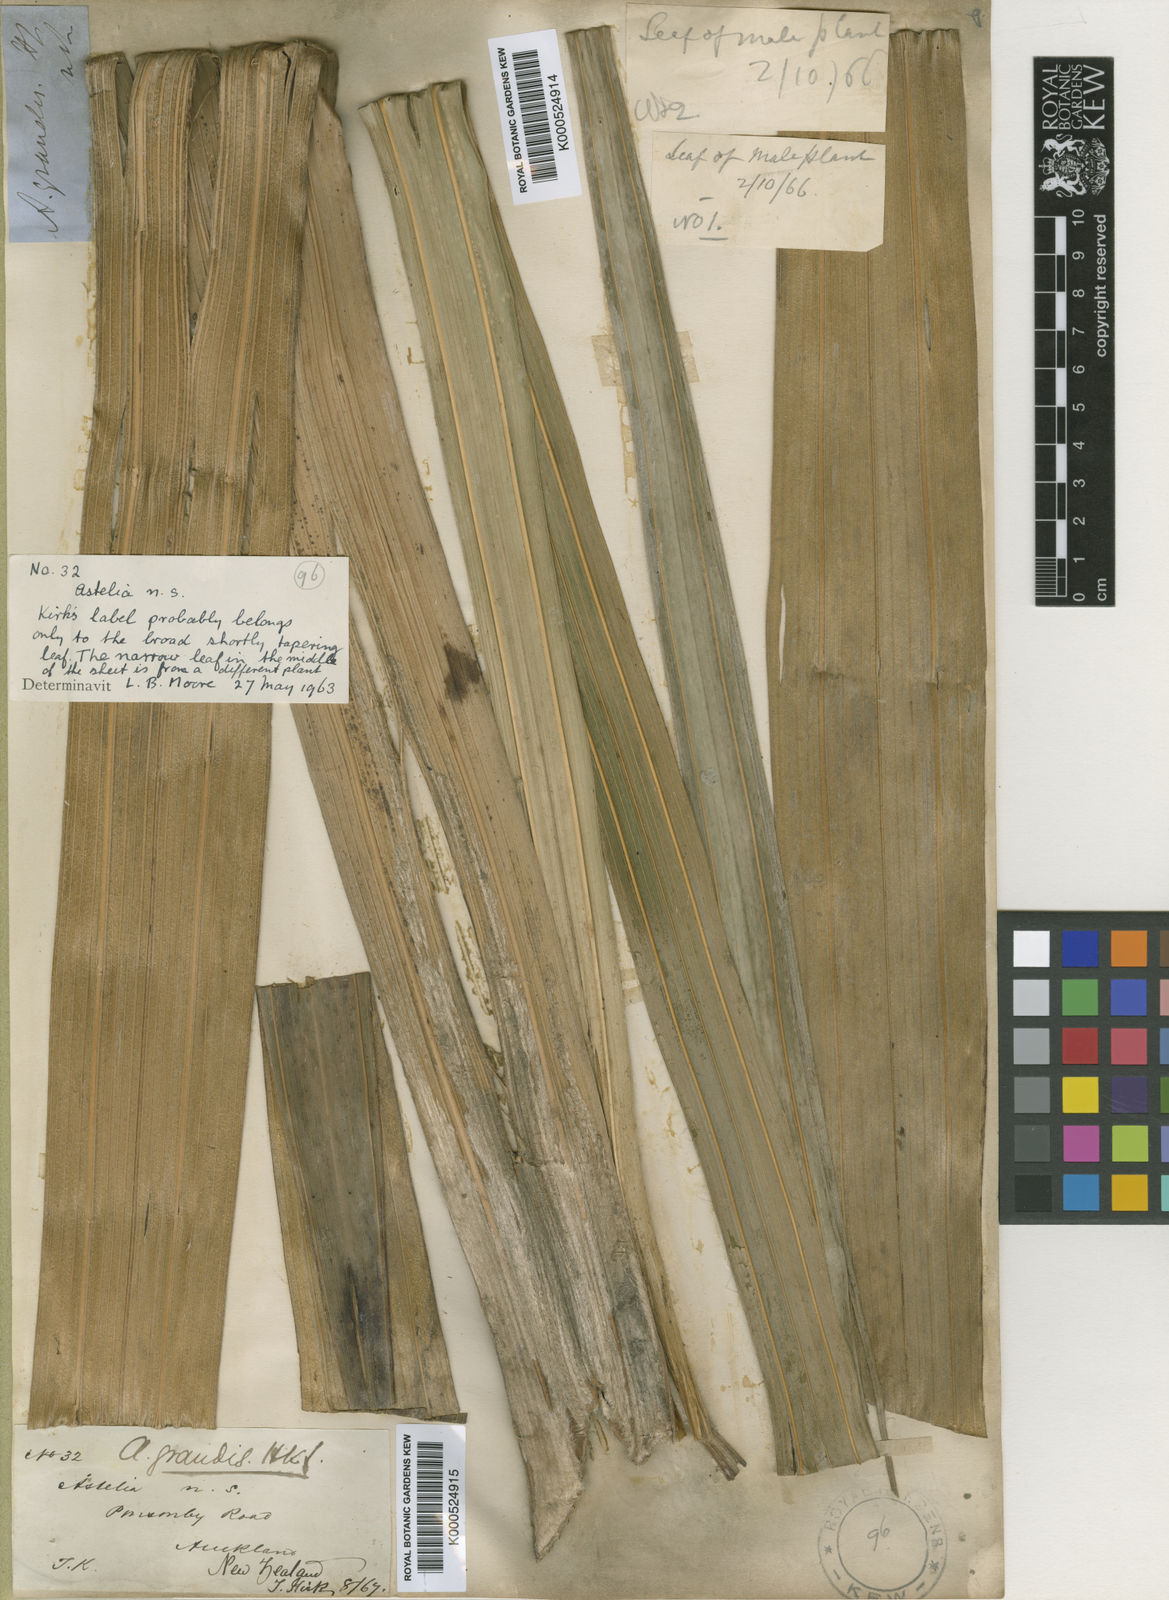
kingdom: Plantae
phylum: Tracheophyta
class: Liliopsida
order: Asparagales
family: Asteliaceae
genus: Astelia
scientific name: Astelia grandis
